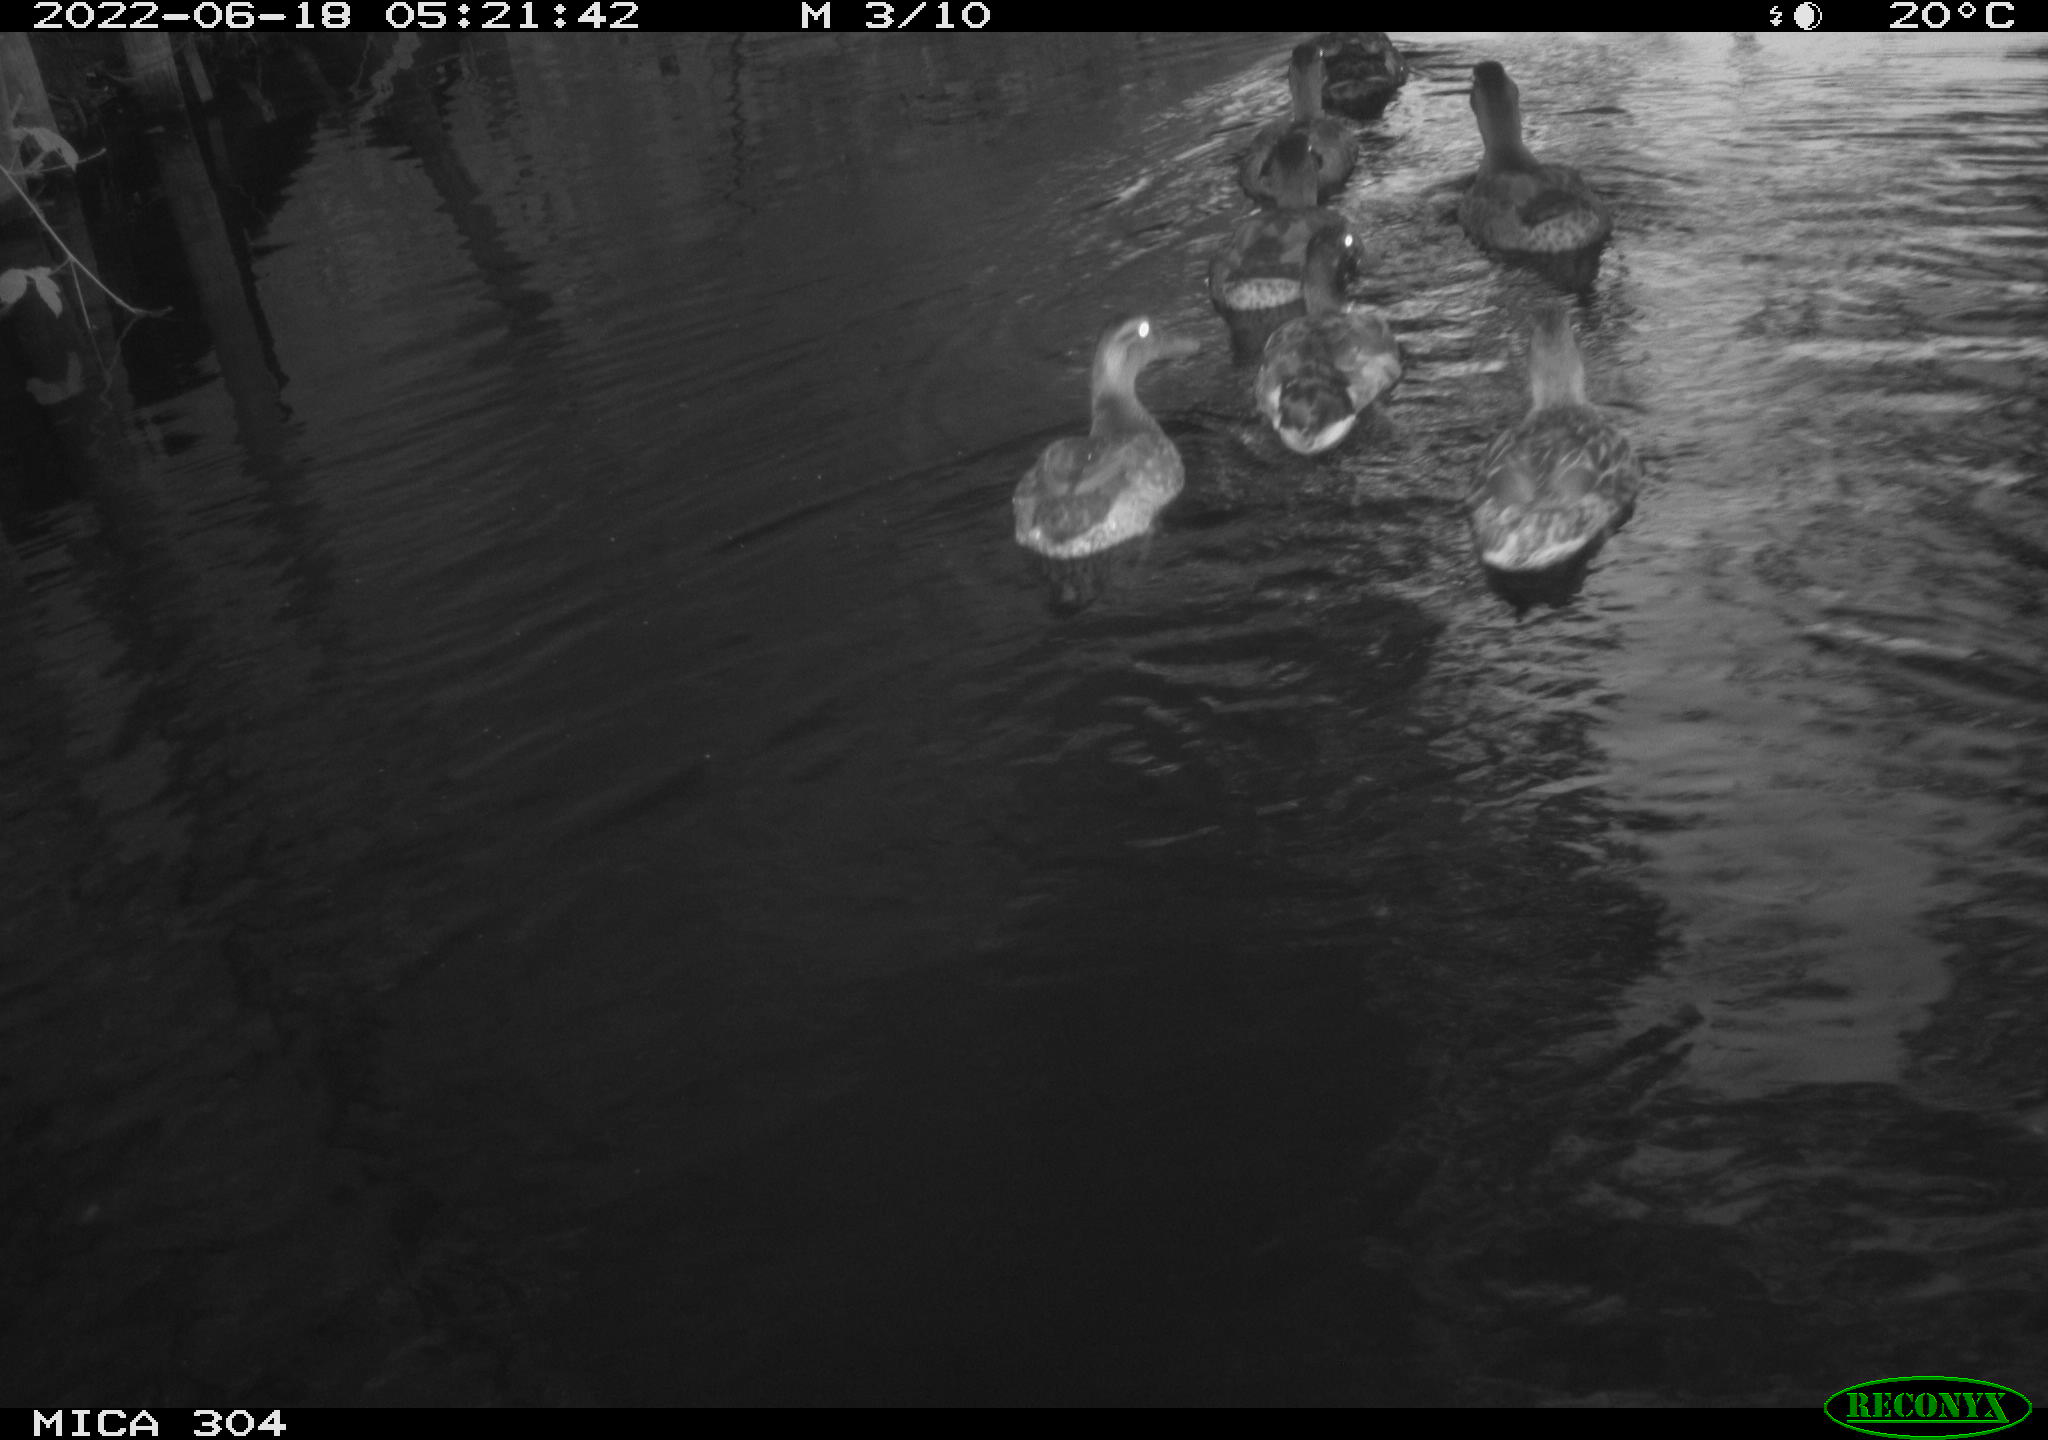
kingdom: Animalia
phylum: Chordata
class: Aves
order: Anseriformes
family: Anatidae
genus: Anas
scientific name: Anas platyrhynchos
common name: Mallard
